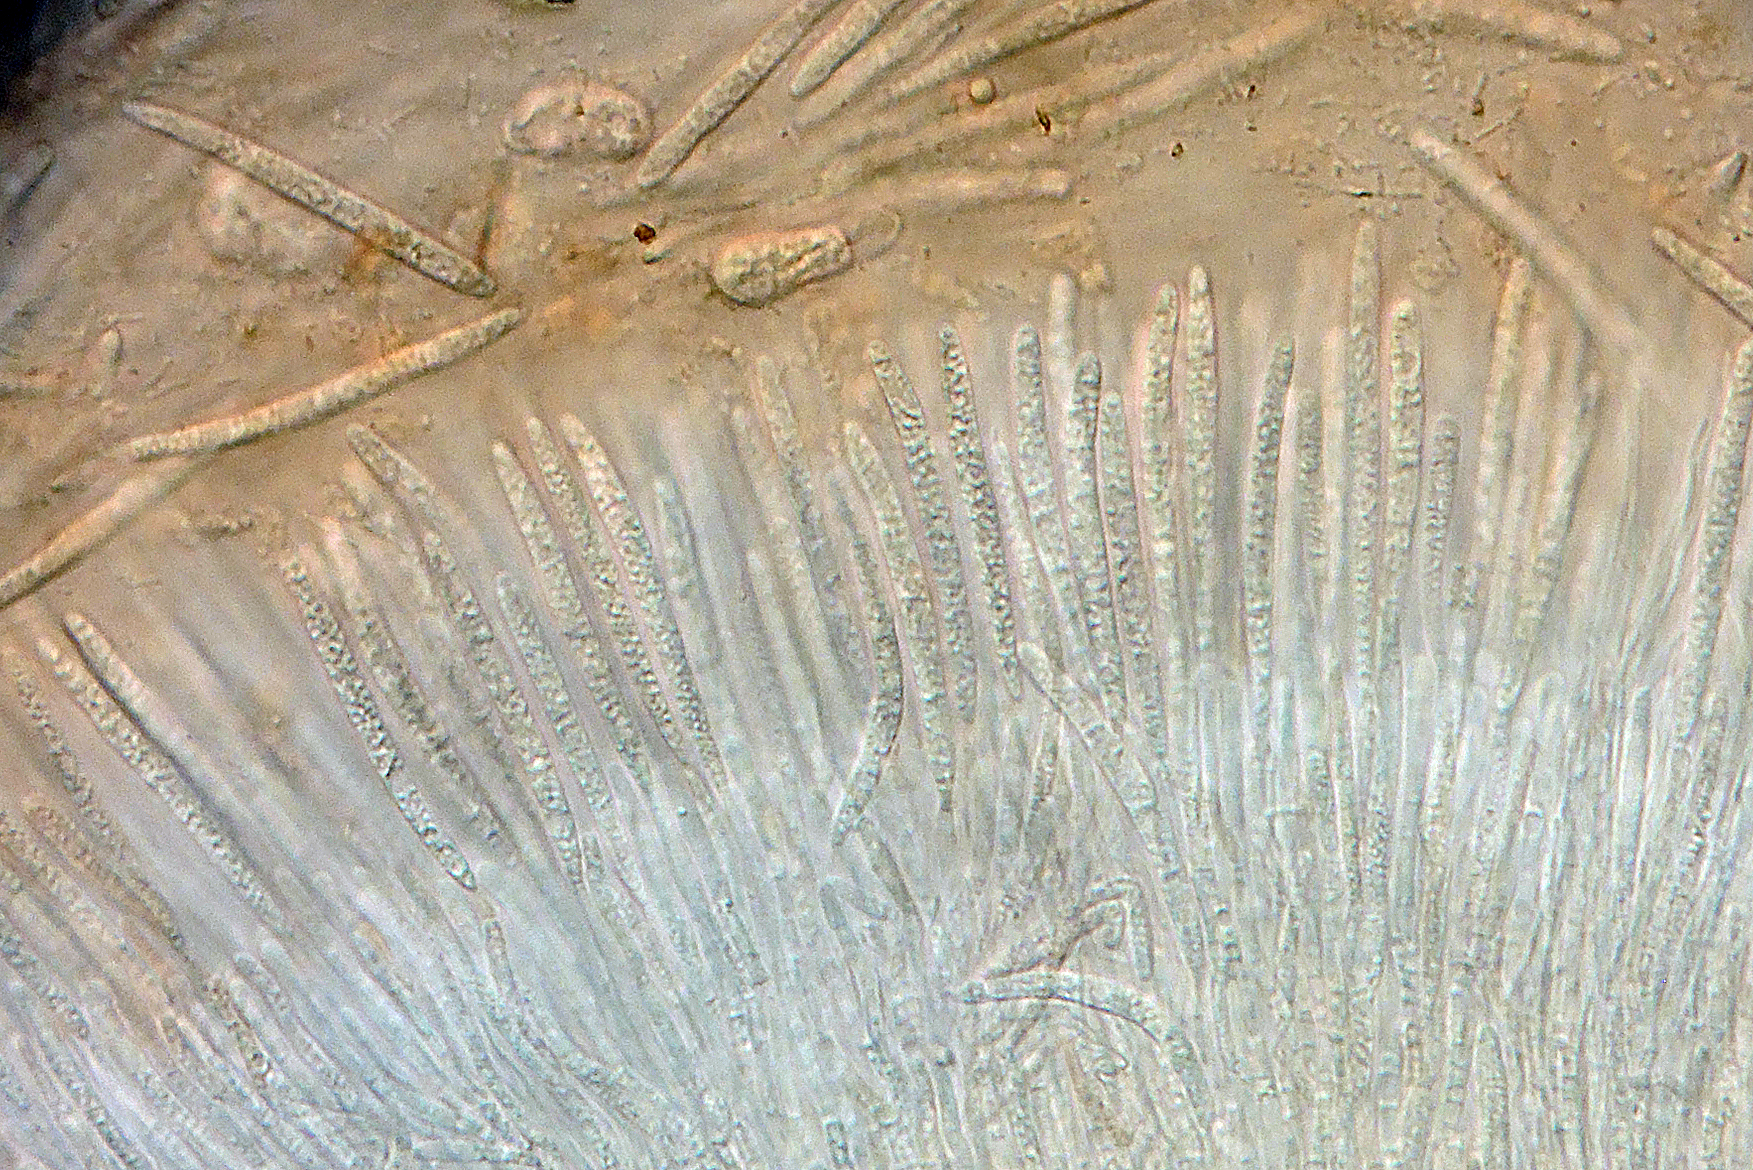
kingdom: Fungi
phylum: Ascomycota
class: Sordariomycetes
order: Hypocreales
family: Nectriaceae
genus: Neonectria
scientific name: Neonectria
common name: cinnobersvamp
